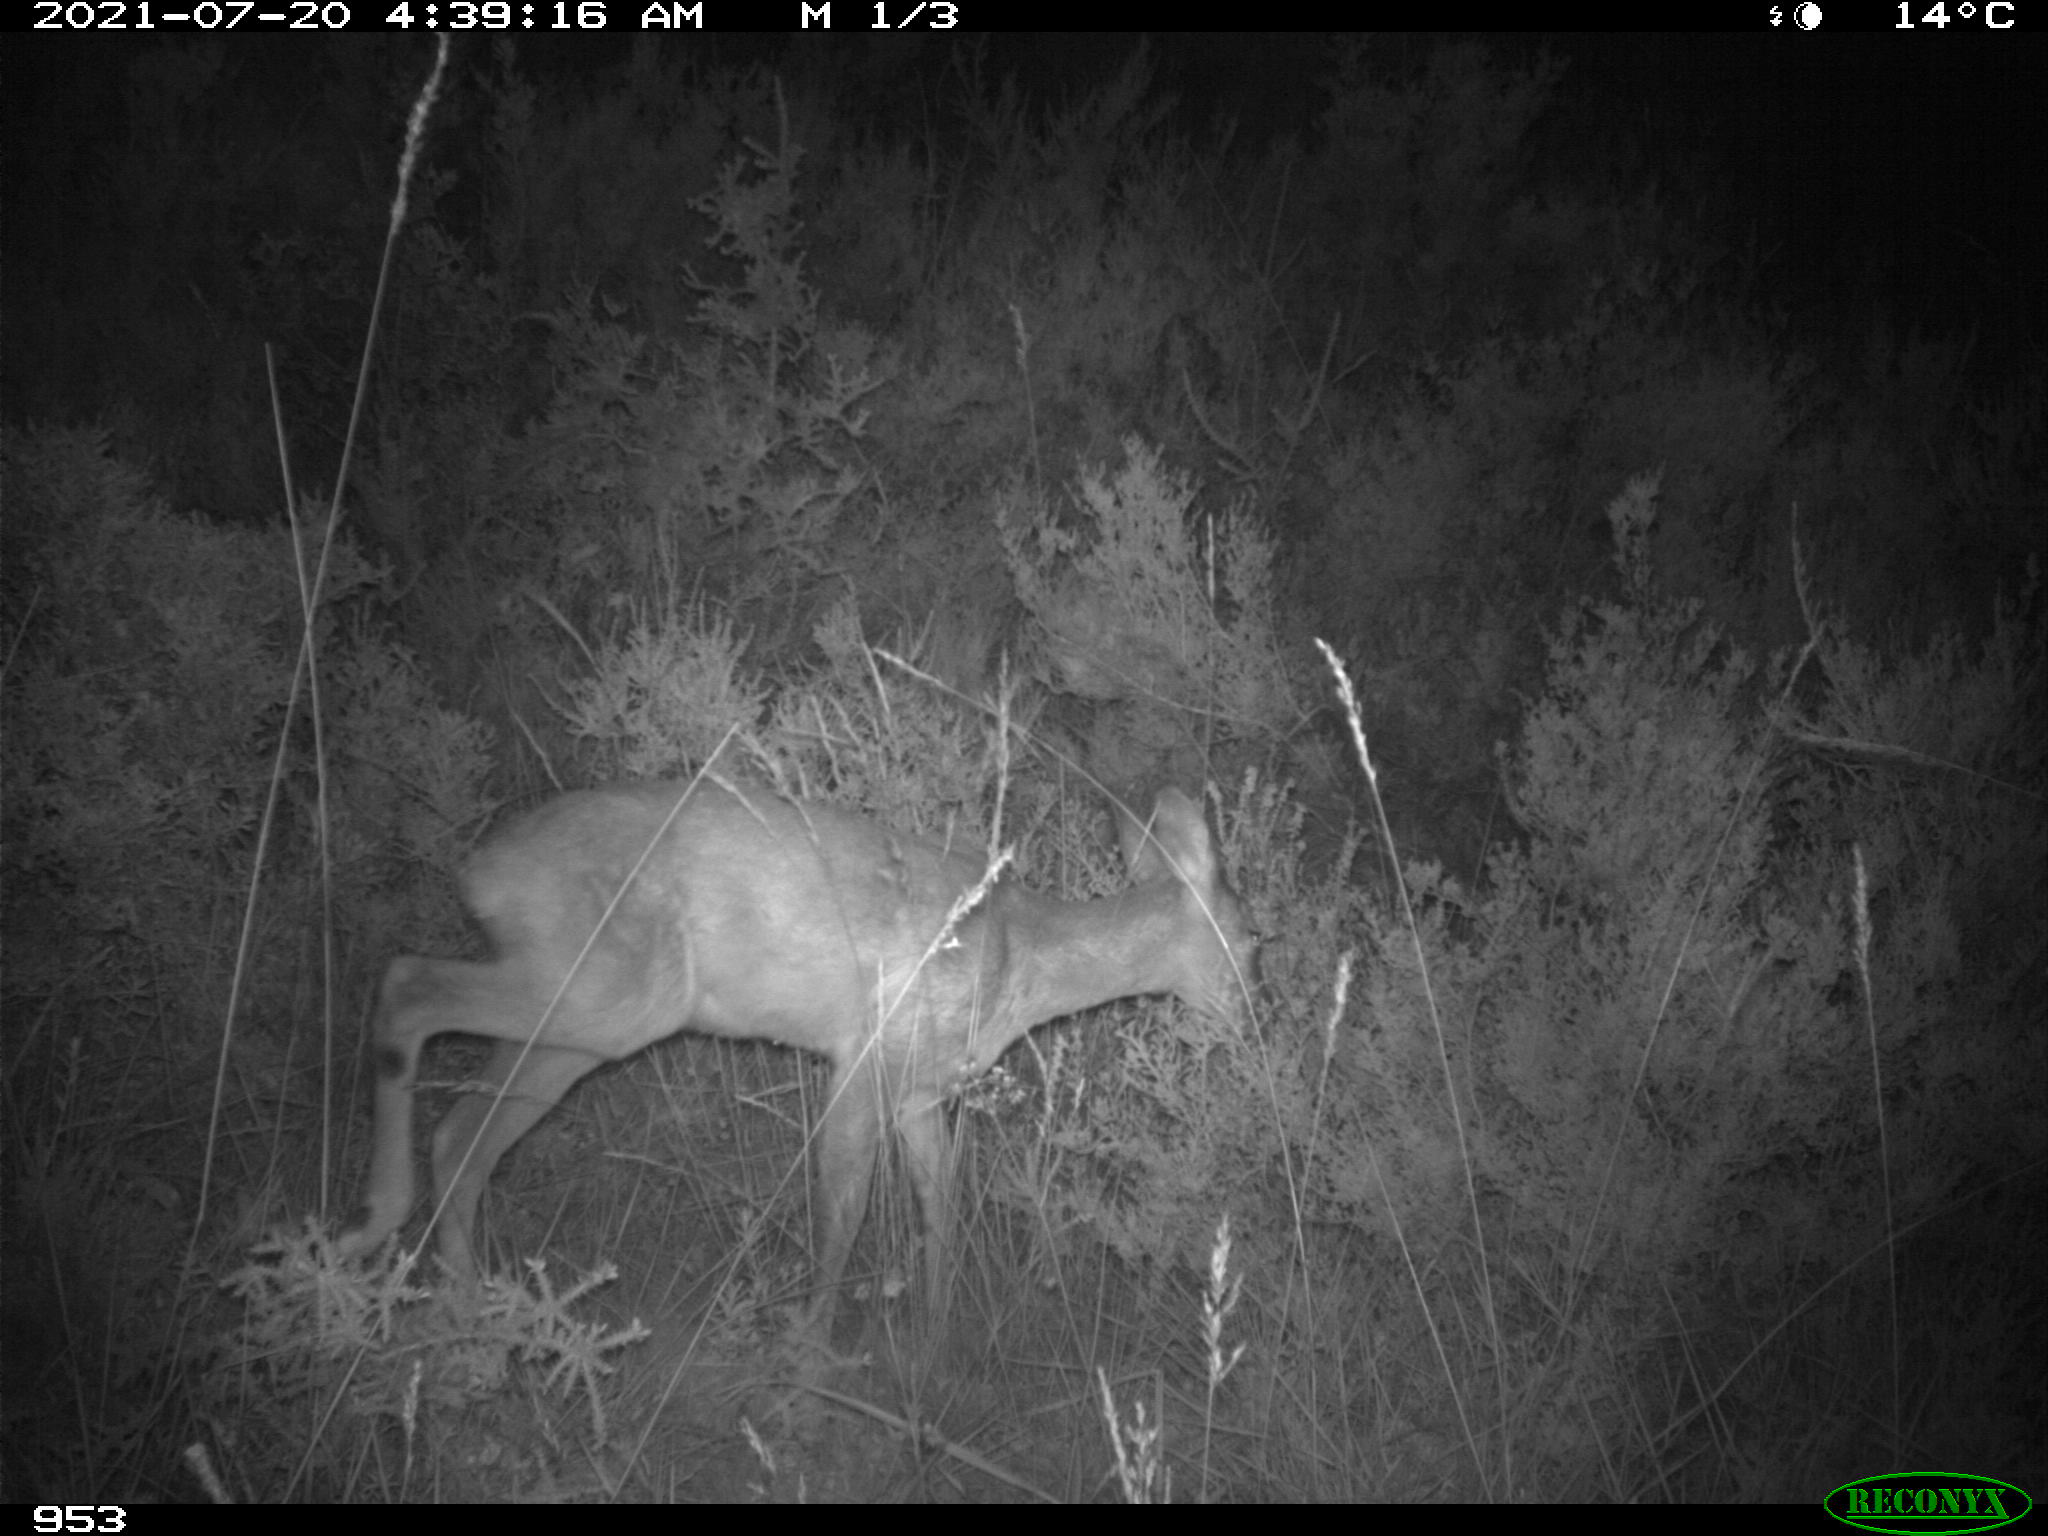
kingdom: Animalia
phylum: Chordata
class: Mammalia
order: Artiodactyla
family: Cervidae
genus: Capreolus
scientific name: Capreolus capreolus
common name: Western roe deer
